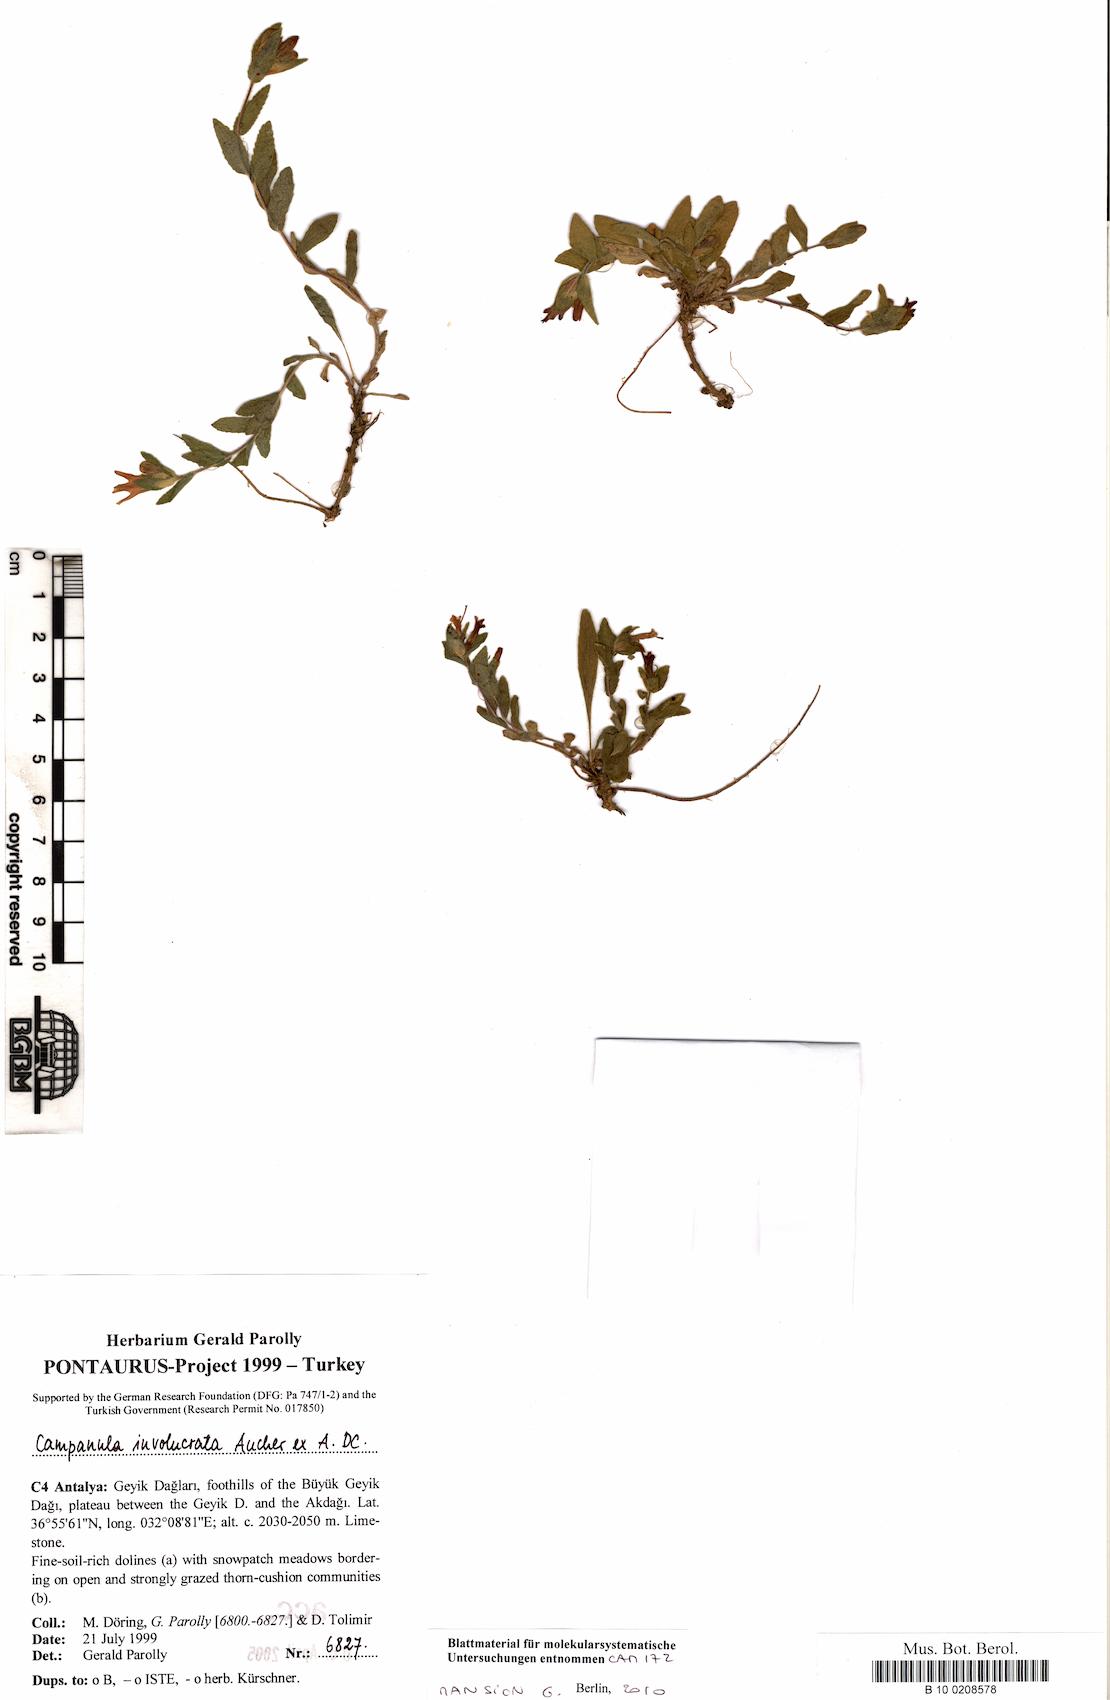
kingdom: Plantae
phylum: Tracheophyta
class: Magnoliopsida
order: Asterales
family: Campanulaceae
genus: Campanula
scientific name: Campanula involucrata
